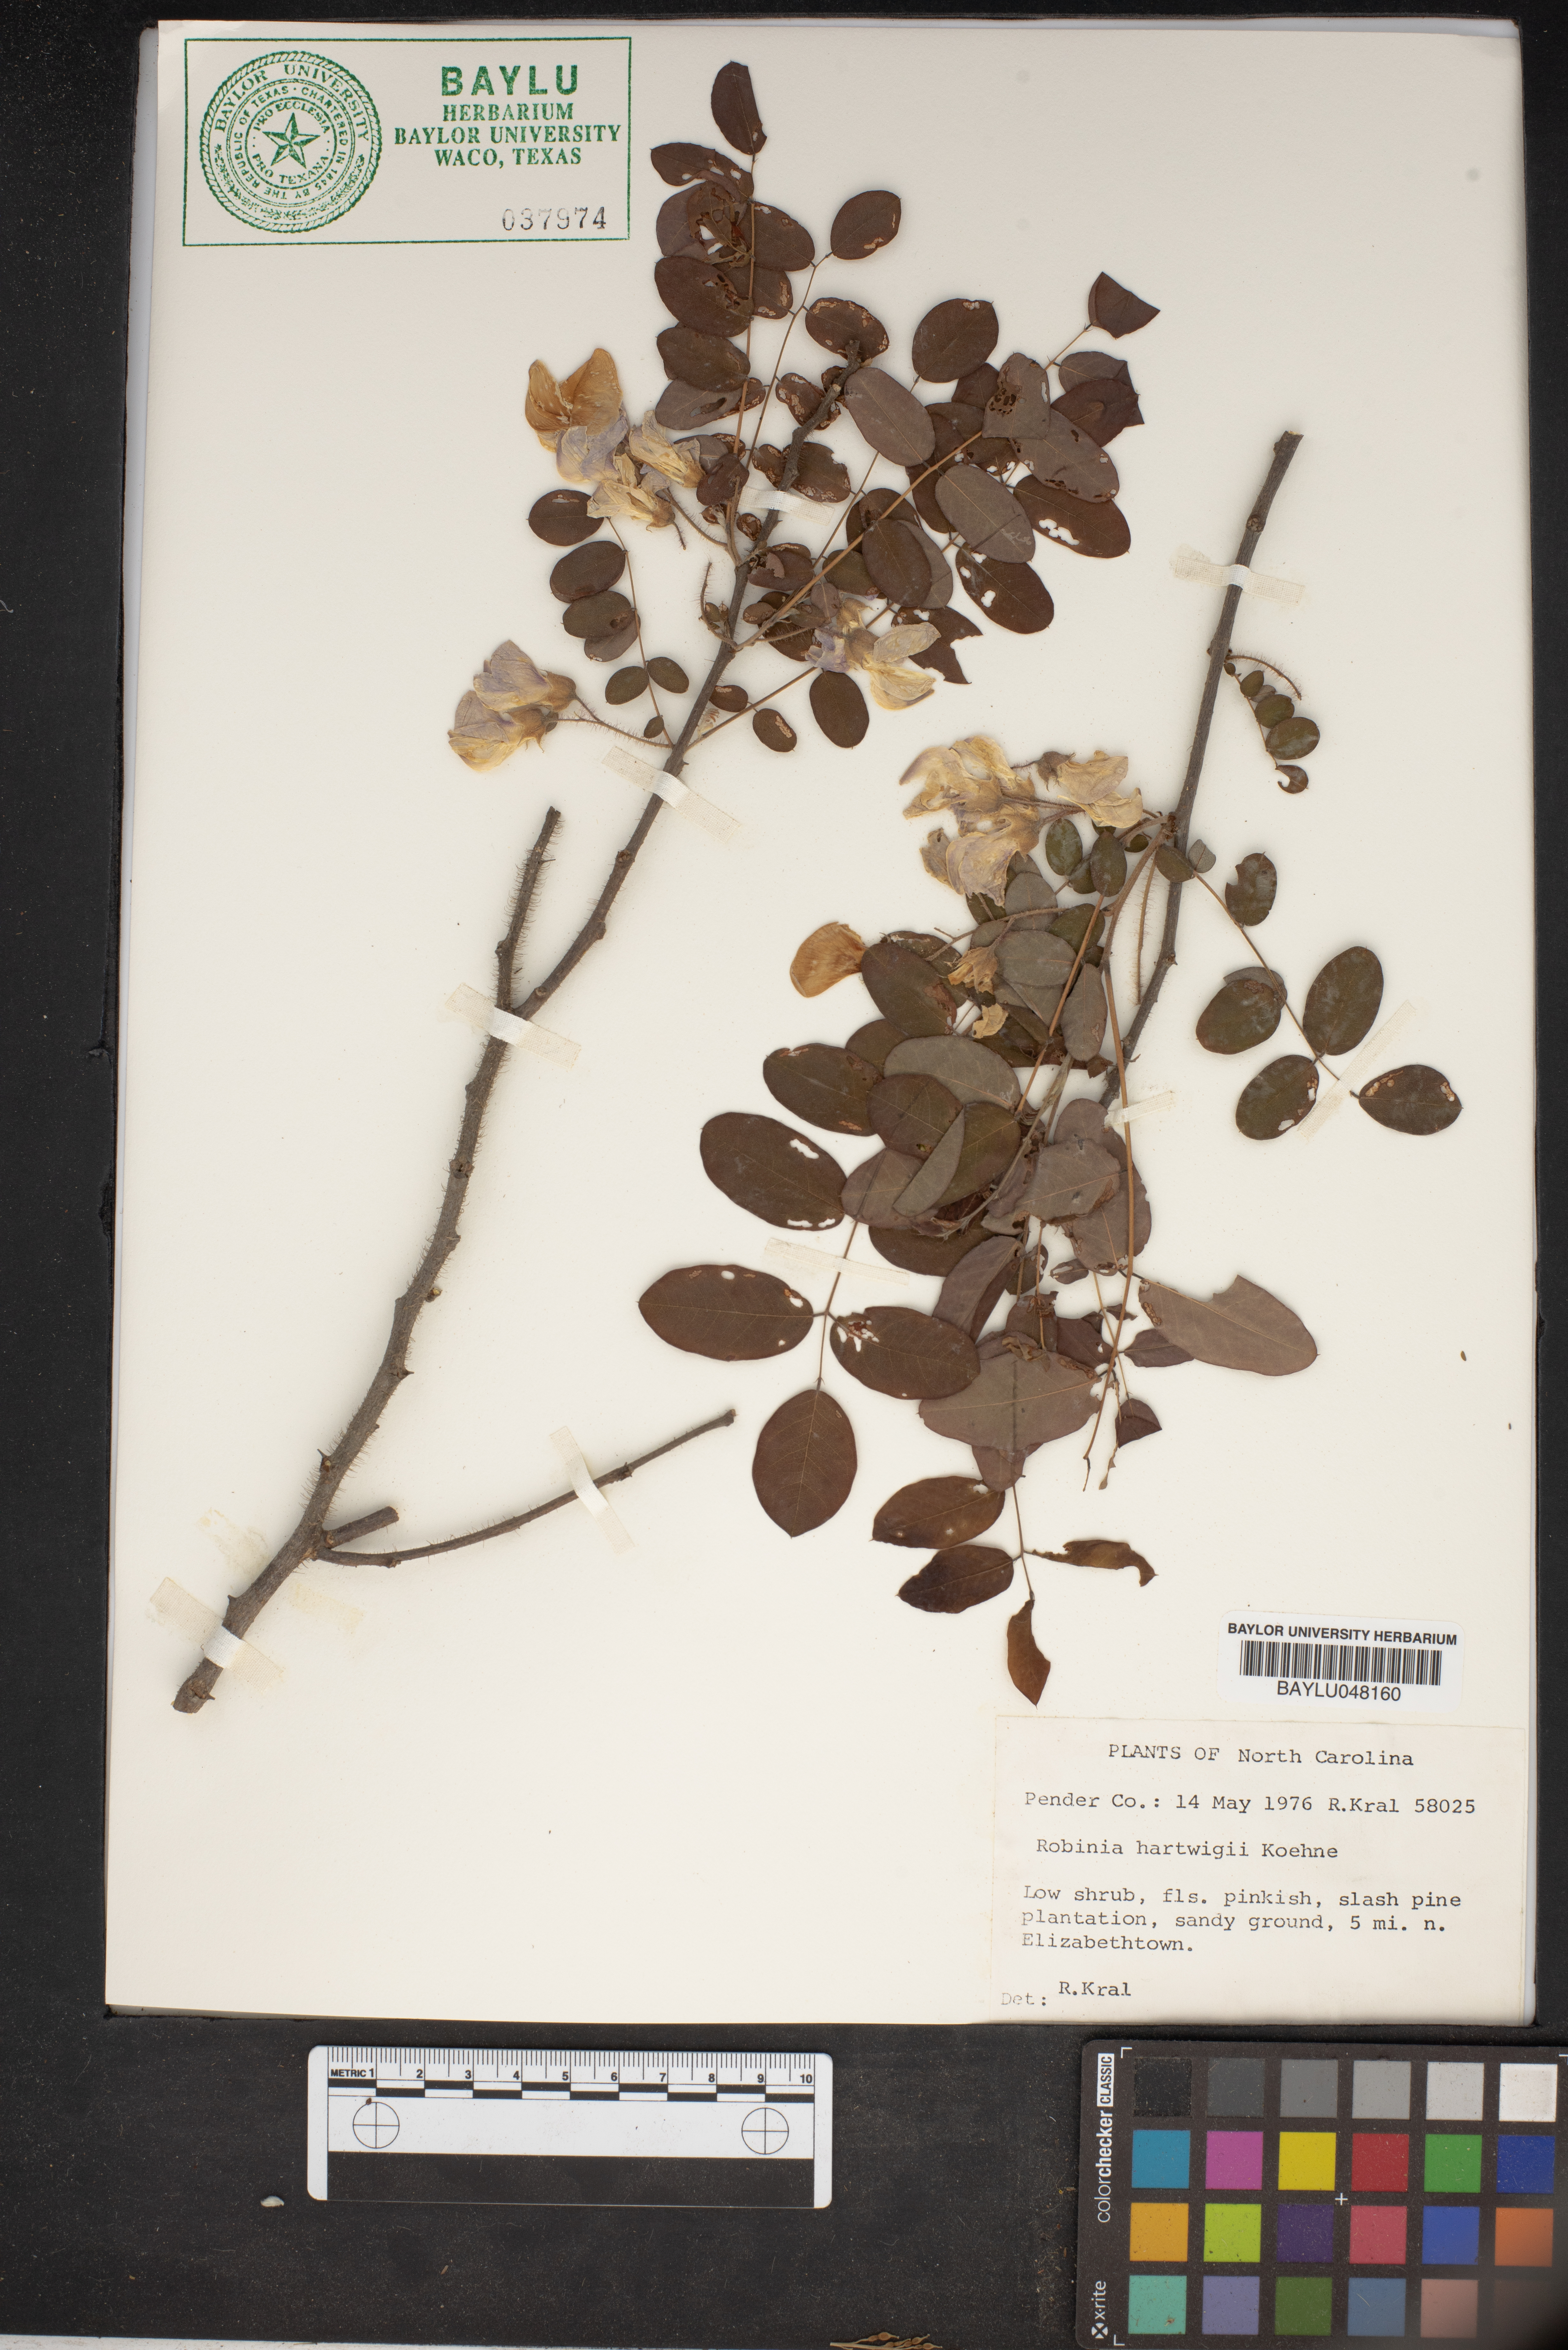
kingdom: Plantae
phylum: Tracheophyta
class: Magnoliopsida
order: Fabales
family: Fabaceae
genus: Robinia
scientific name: Robinia hartwigii
